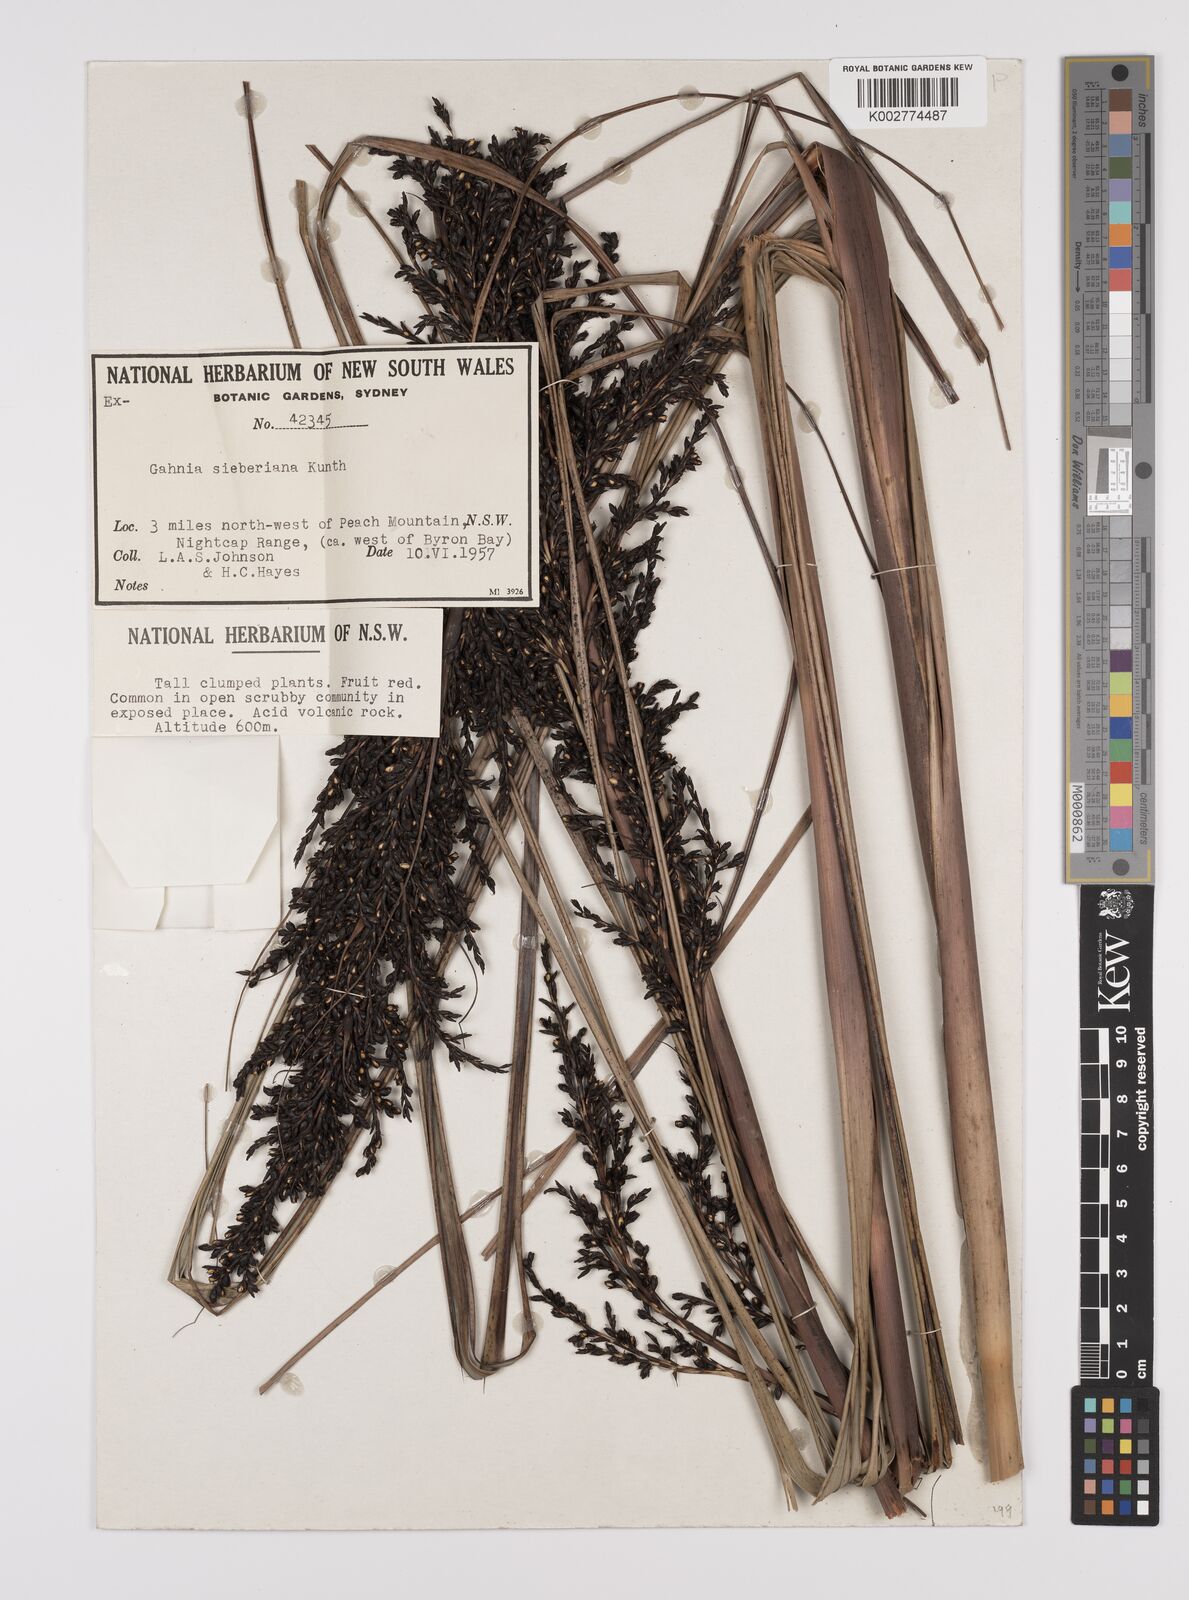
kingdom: Plantae
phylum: Tracheophyta
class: Liliopsida
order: Poales
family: Cyperaceae
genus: Gahnia
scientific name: Gahnia sieberiana
